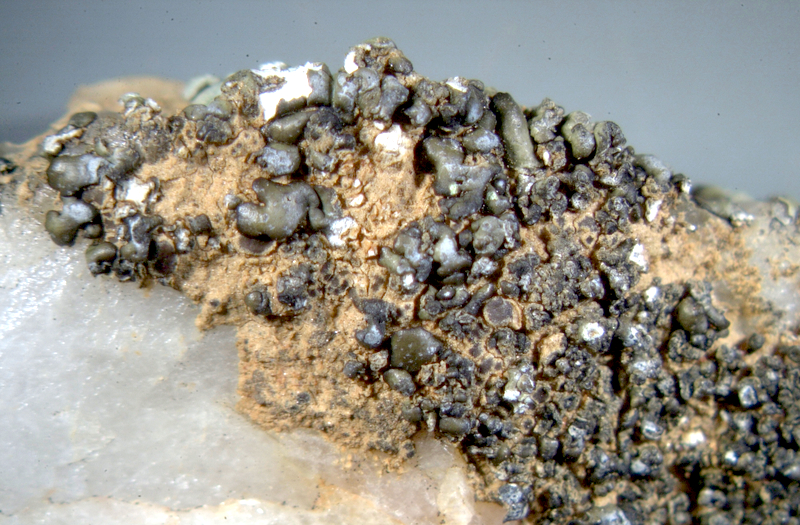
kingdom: Fungi
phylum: Ascomycota
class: Lecanoromycetes
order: Lecanorales
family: Parmeliaceae
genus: Neofuscelia
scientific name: Neofuscelia
